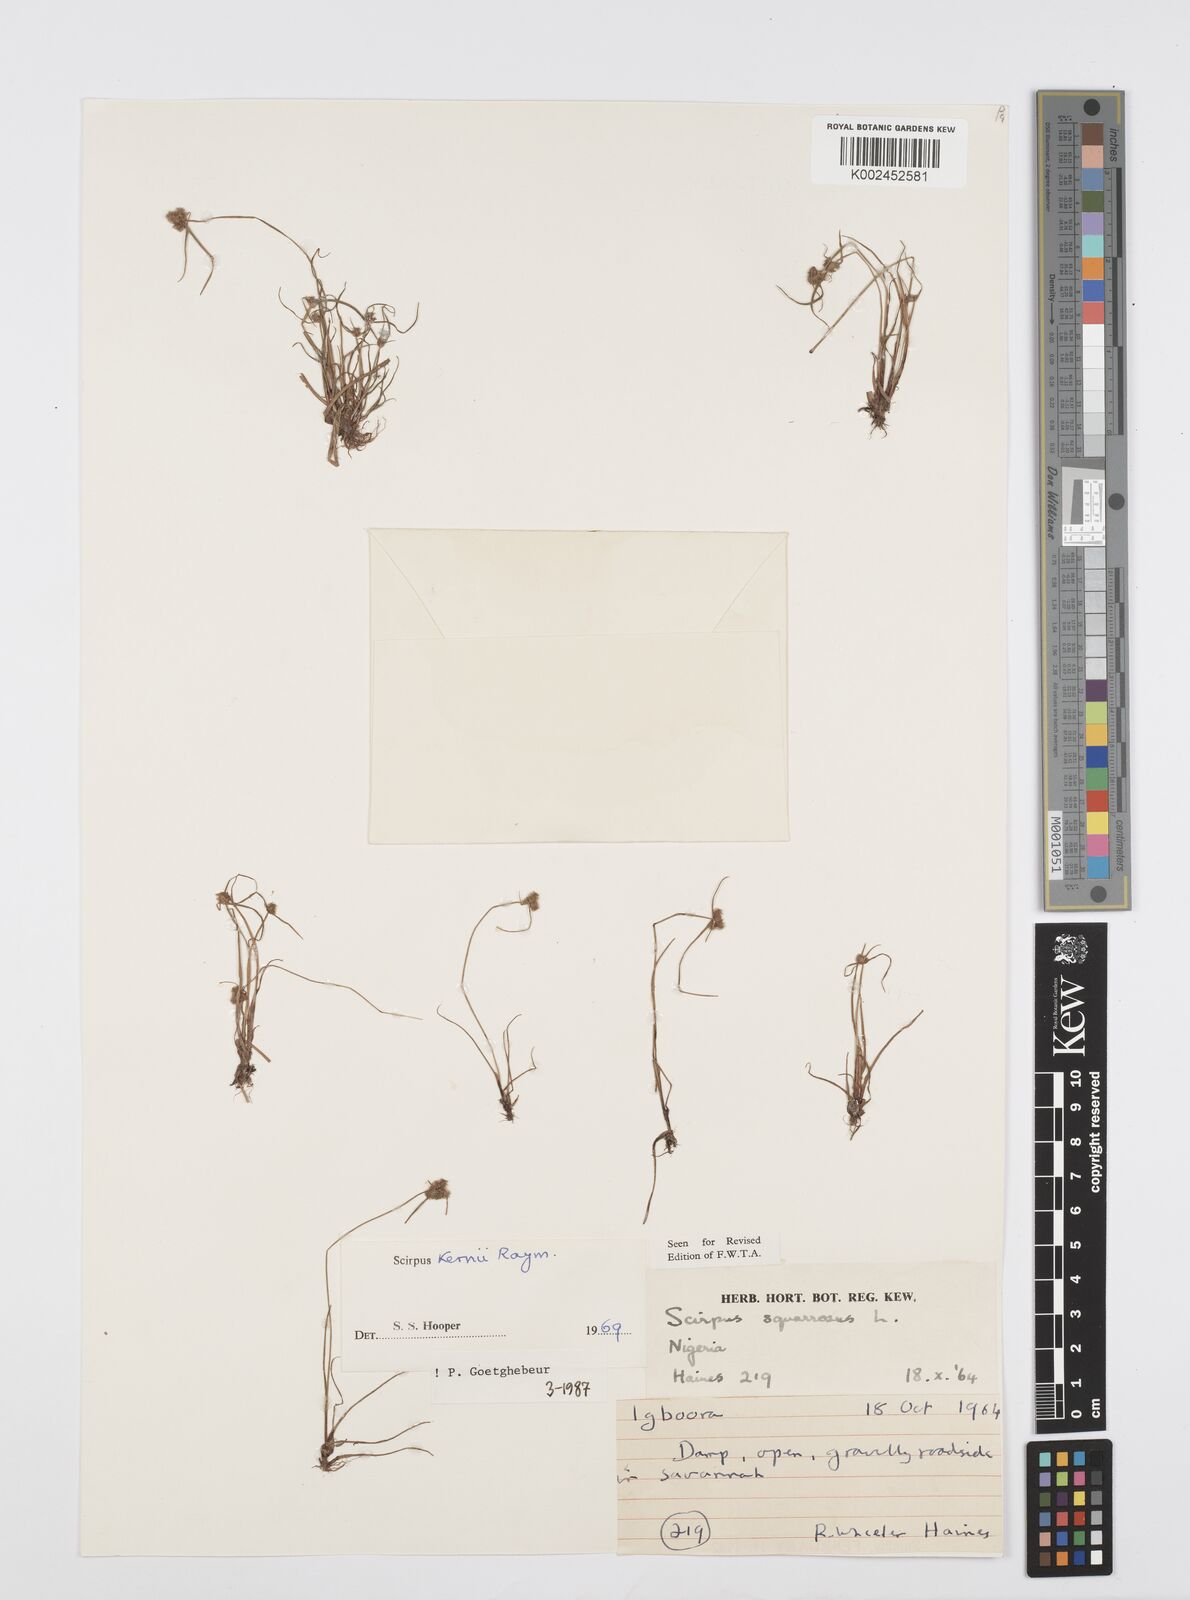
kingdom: Plantae
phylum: Tracheophyta
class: Liliopsida
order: Poales
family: Cyperaceae
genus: Cyperus
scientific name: Cyperus kernii
